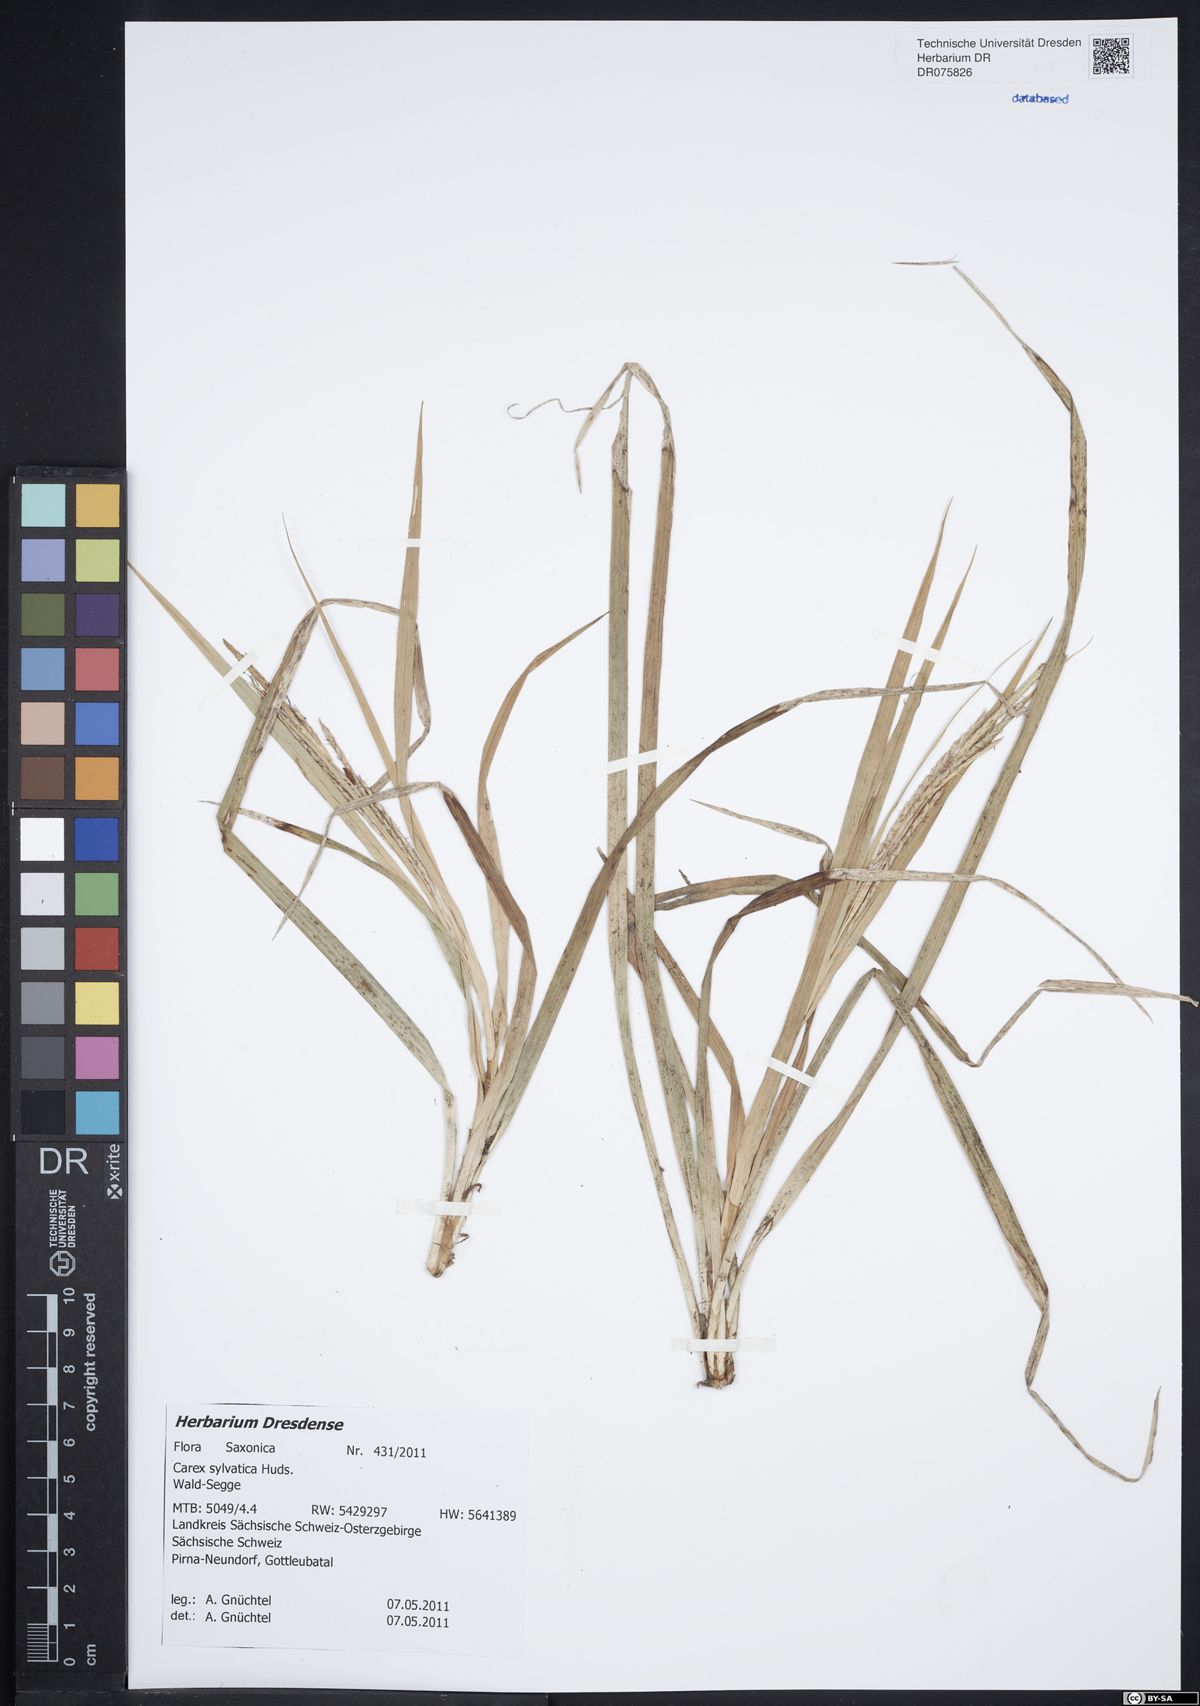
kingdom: Plantae
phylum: Tracheophyta
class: Liliopsida
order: Poales
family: Cyperaceae
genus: Carex
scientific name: Carex sylvatica
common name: Wood-sedge
